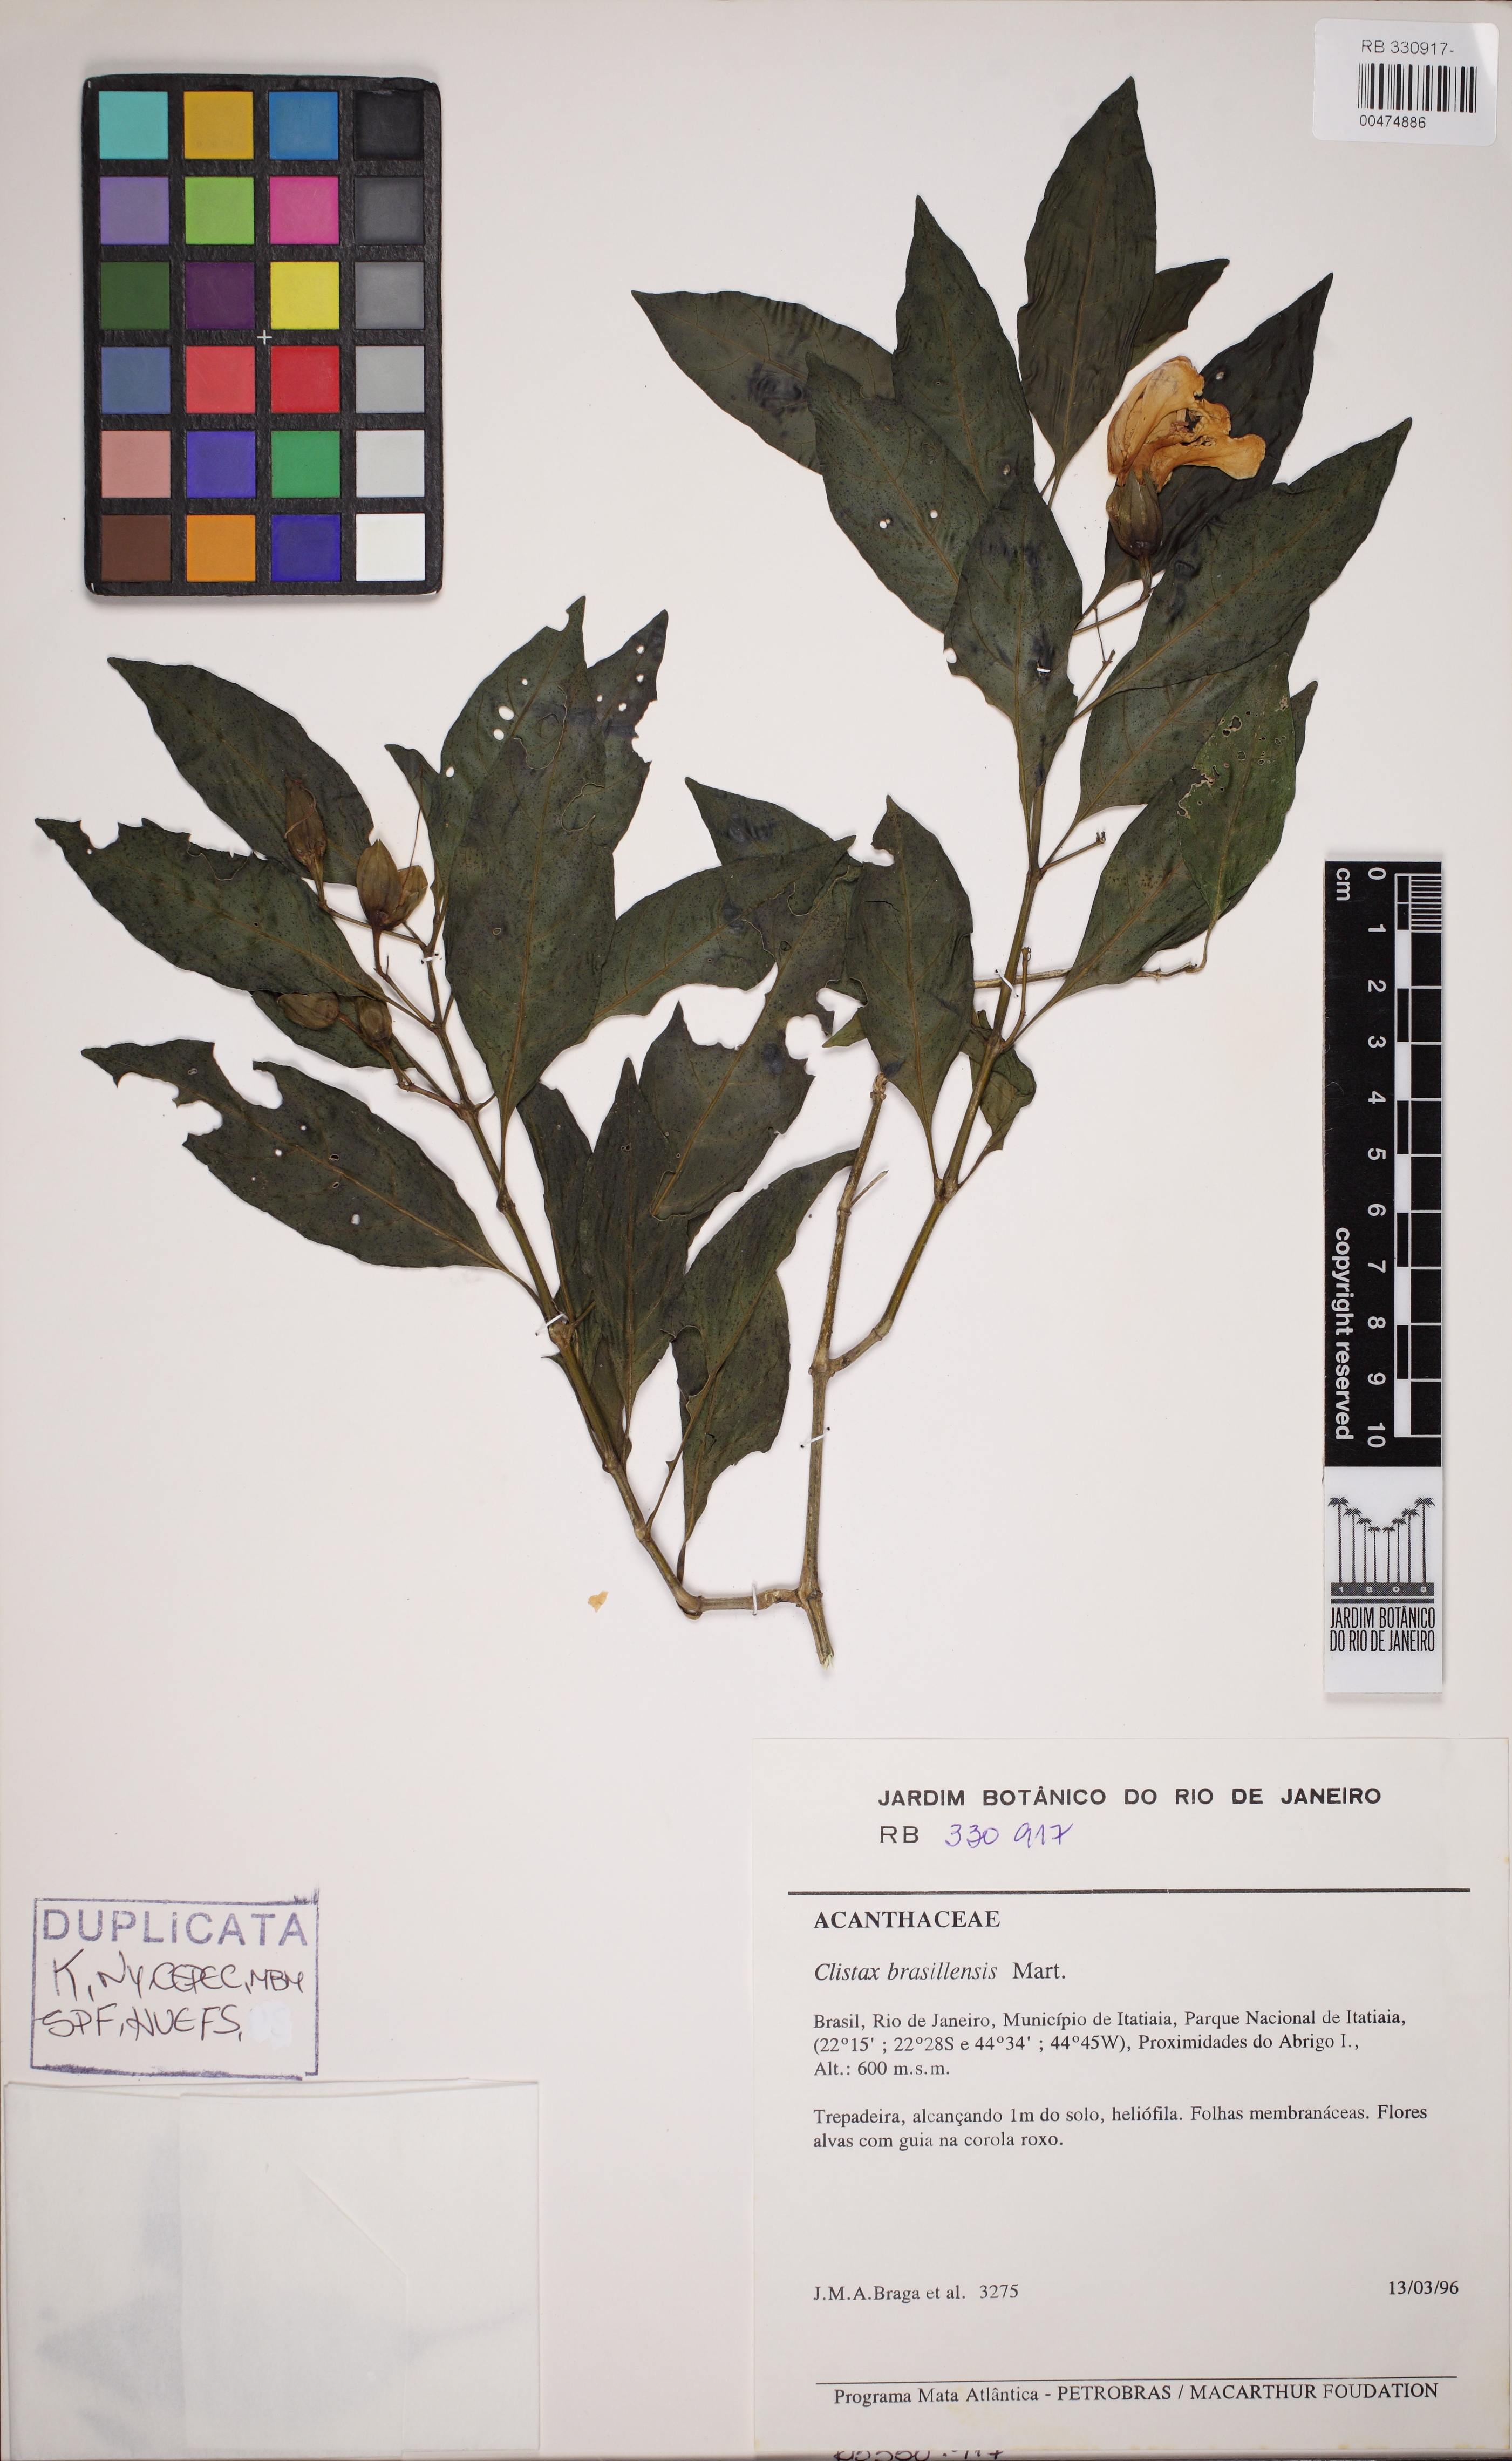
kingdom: Plantae
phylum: Tracheophyta
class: Magnoliopsida
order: Lamiales
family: Acanthaceae
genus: Clistax
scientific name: Clistax brasiliensis
